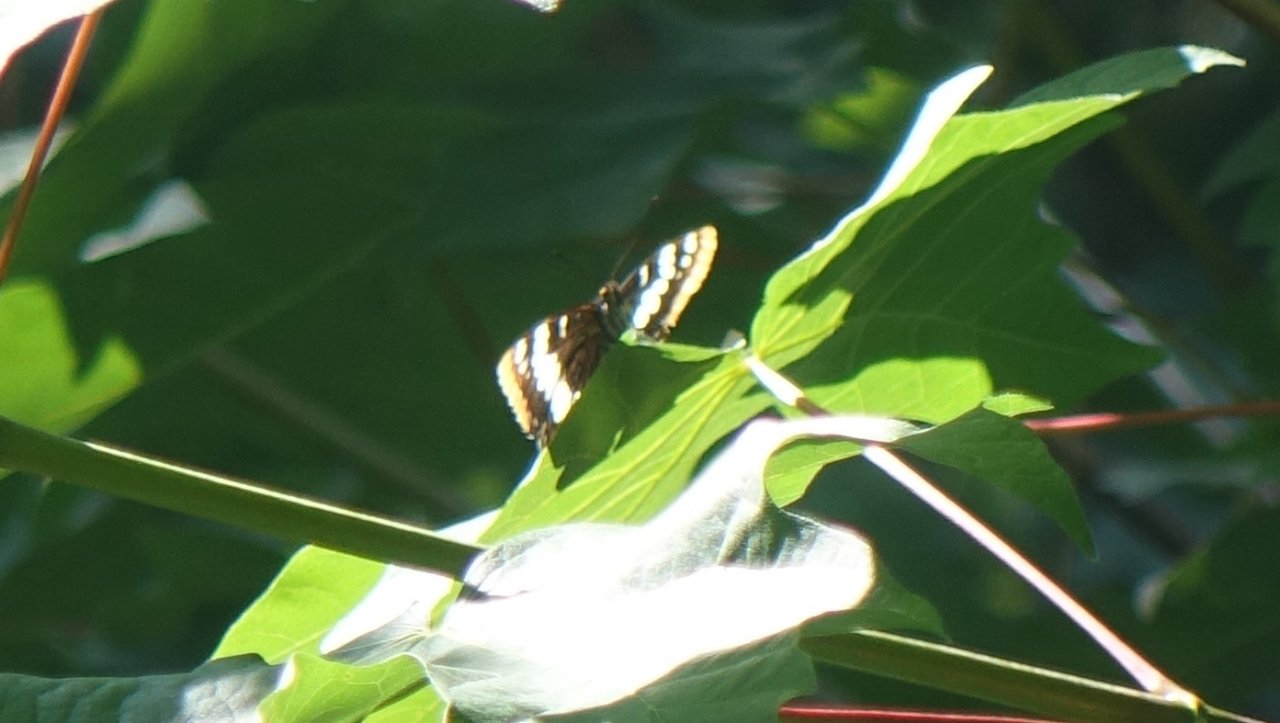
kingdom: Animalia
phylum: Arthropoda
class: Insecta
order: Lepidoptera
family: Nymphalidae
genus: Limenitis
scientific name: Limenitis lorquini
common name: Lorquin's Admiral
